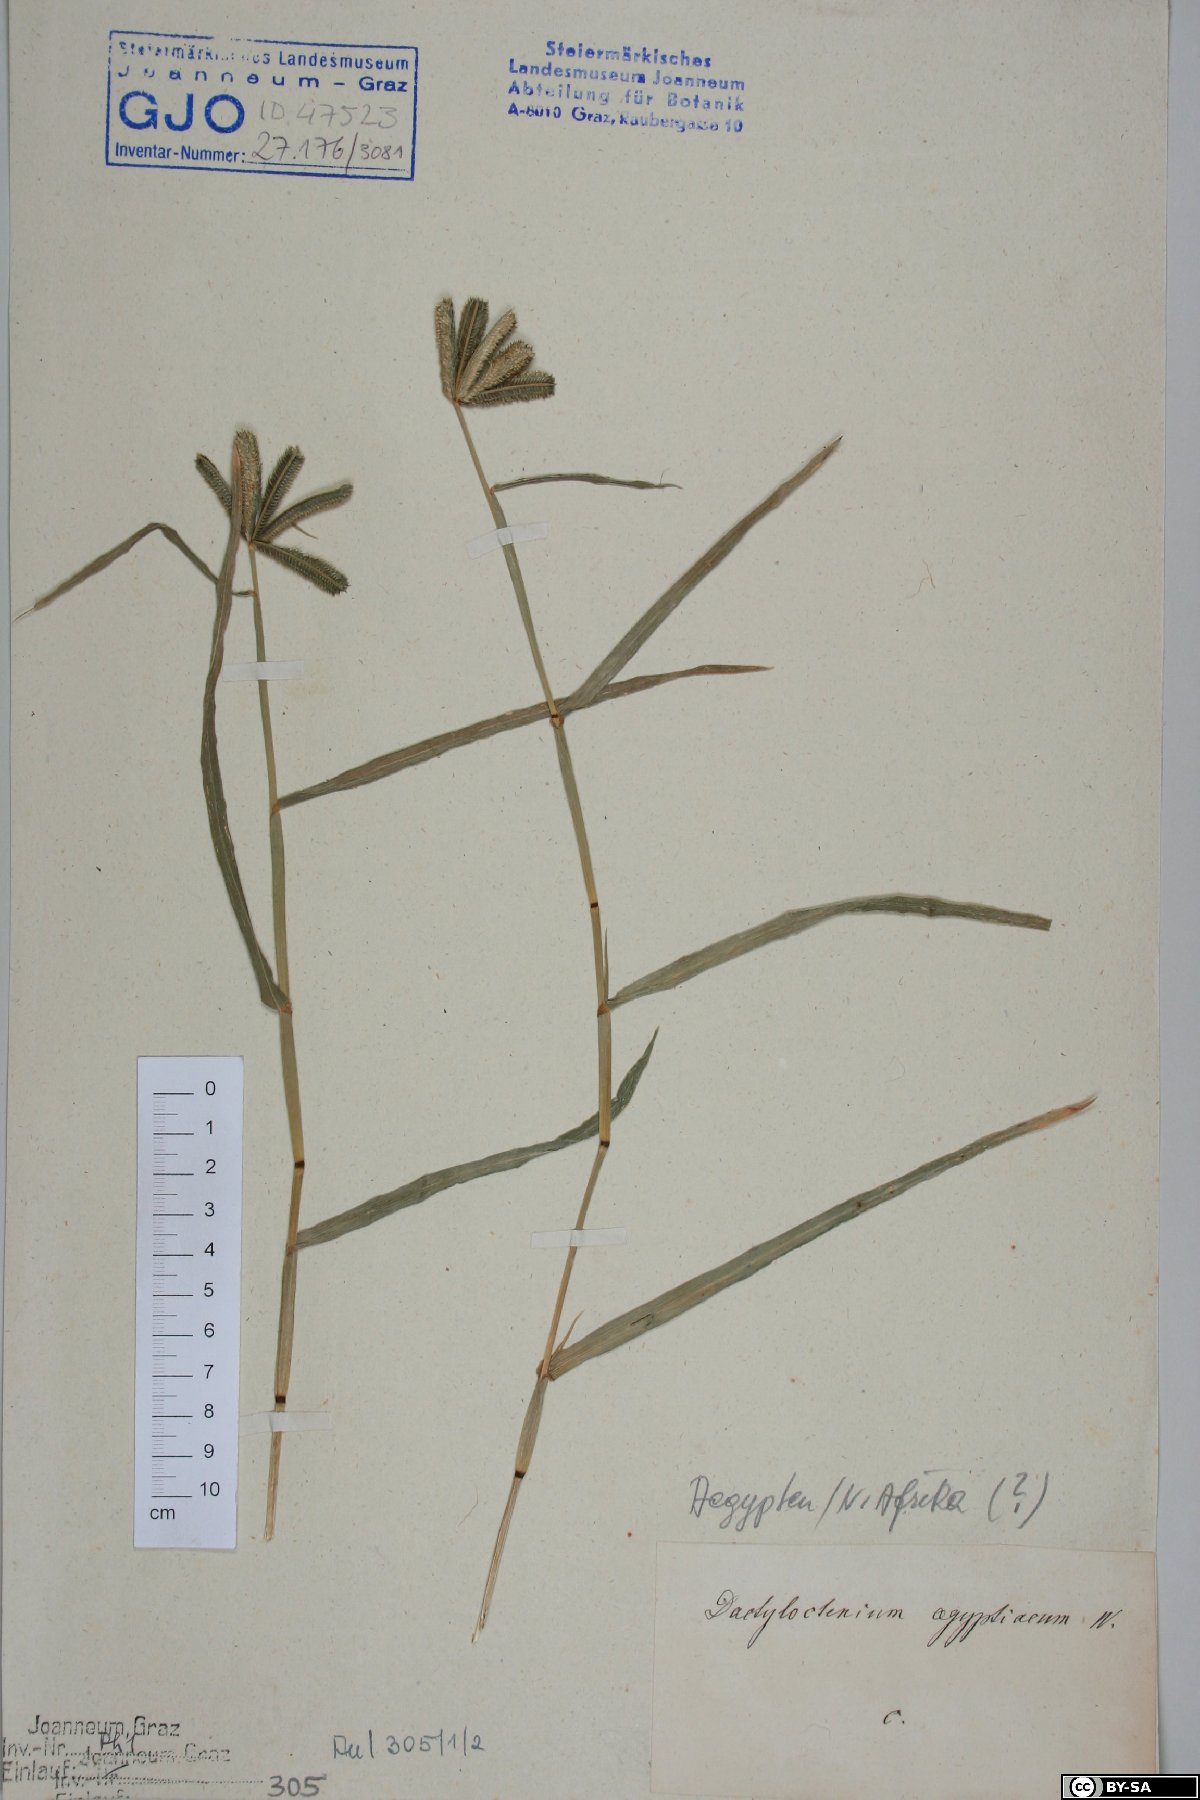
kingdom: Plantae
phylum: Tracheophyta
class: Liliopsida
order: Poales
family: Poaceae
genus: Dactyloctenium
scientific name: Dactyloctenium aegyptium
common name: Egyptian grass
